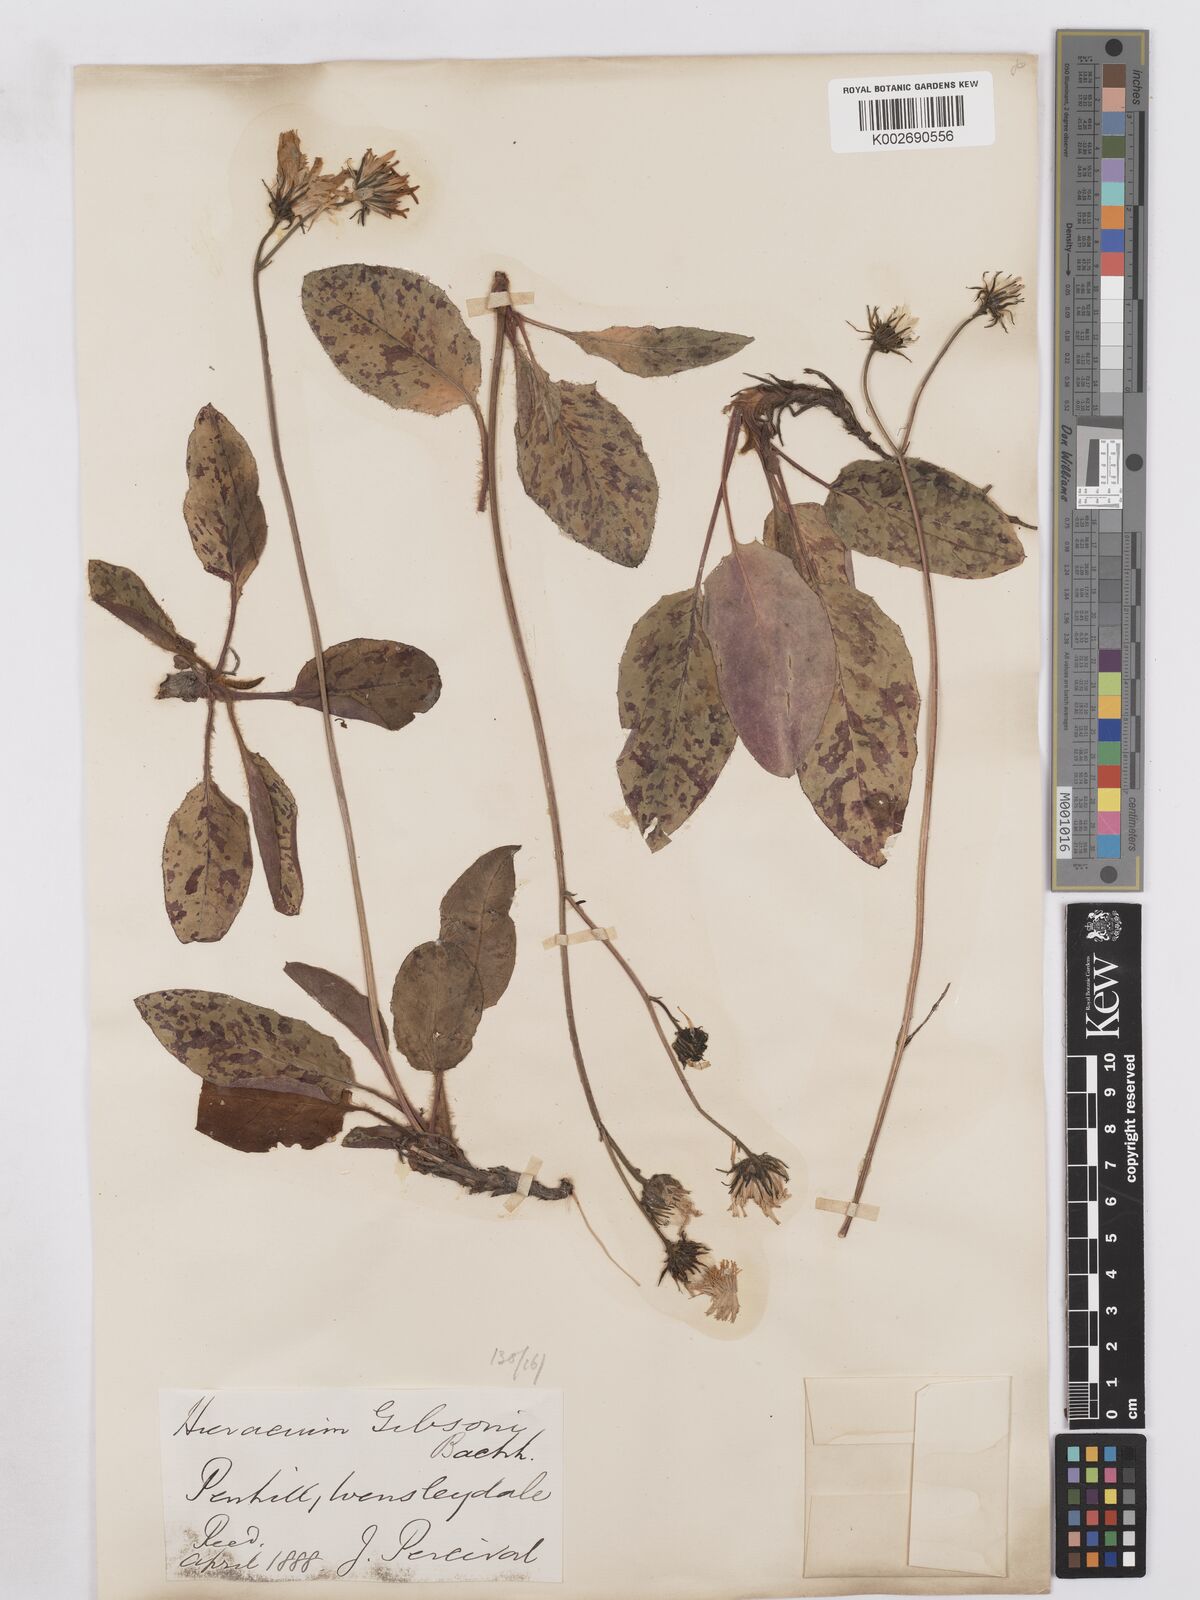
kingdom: Plantae
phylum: Tracheophyta
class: Magnoliopsida
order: Asterales
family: Asteraceae
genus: Hieracium
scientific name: Hieracium stictum
